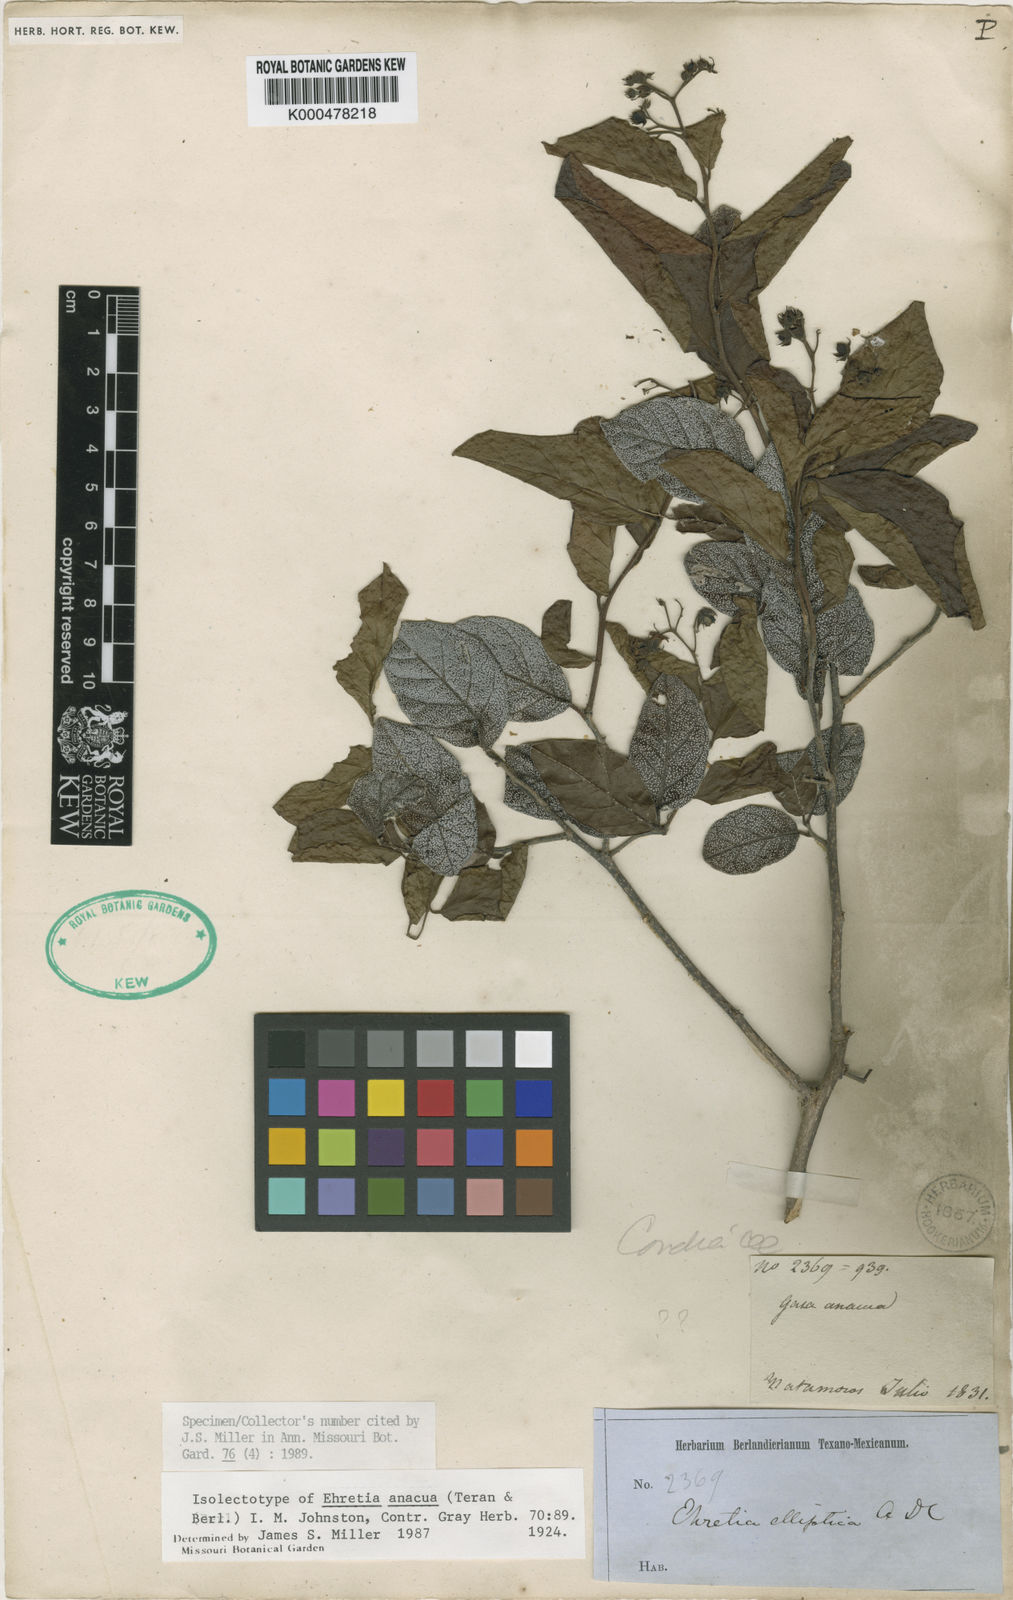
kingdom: Plantae
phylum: Tracheophyta
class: Magnoliopsida
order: Boraginales
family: Ehretiaceae
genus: Ehretia
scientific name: Ehretia
